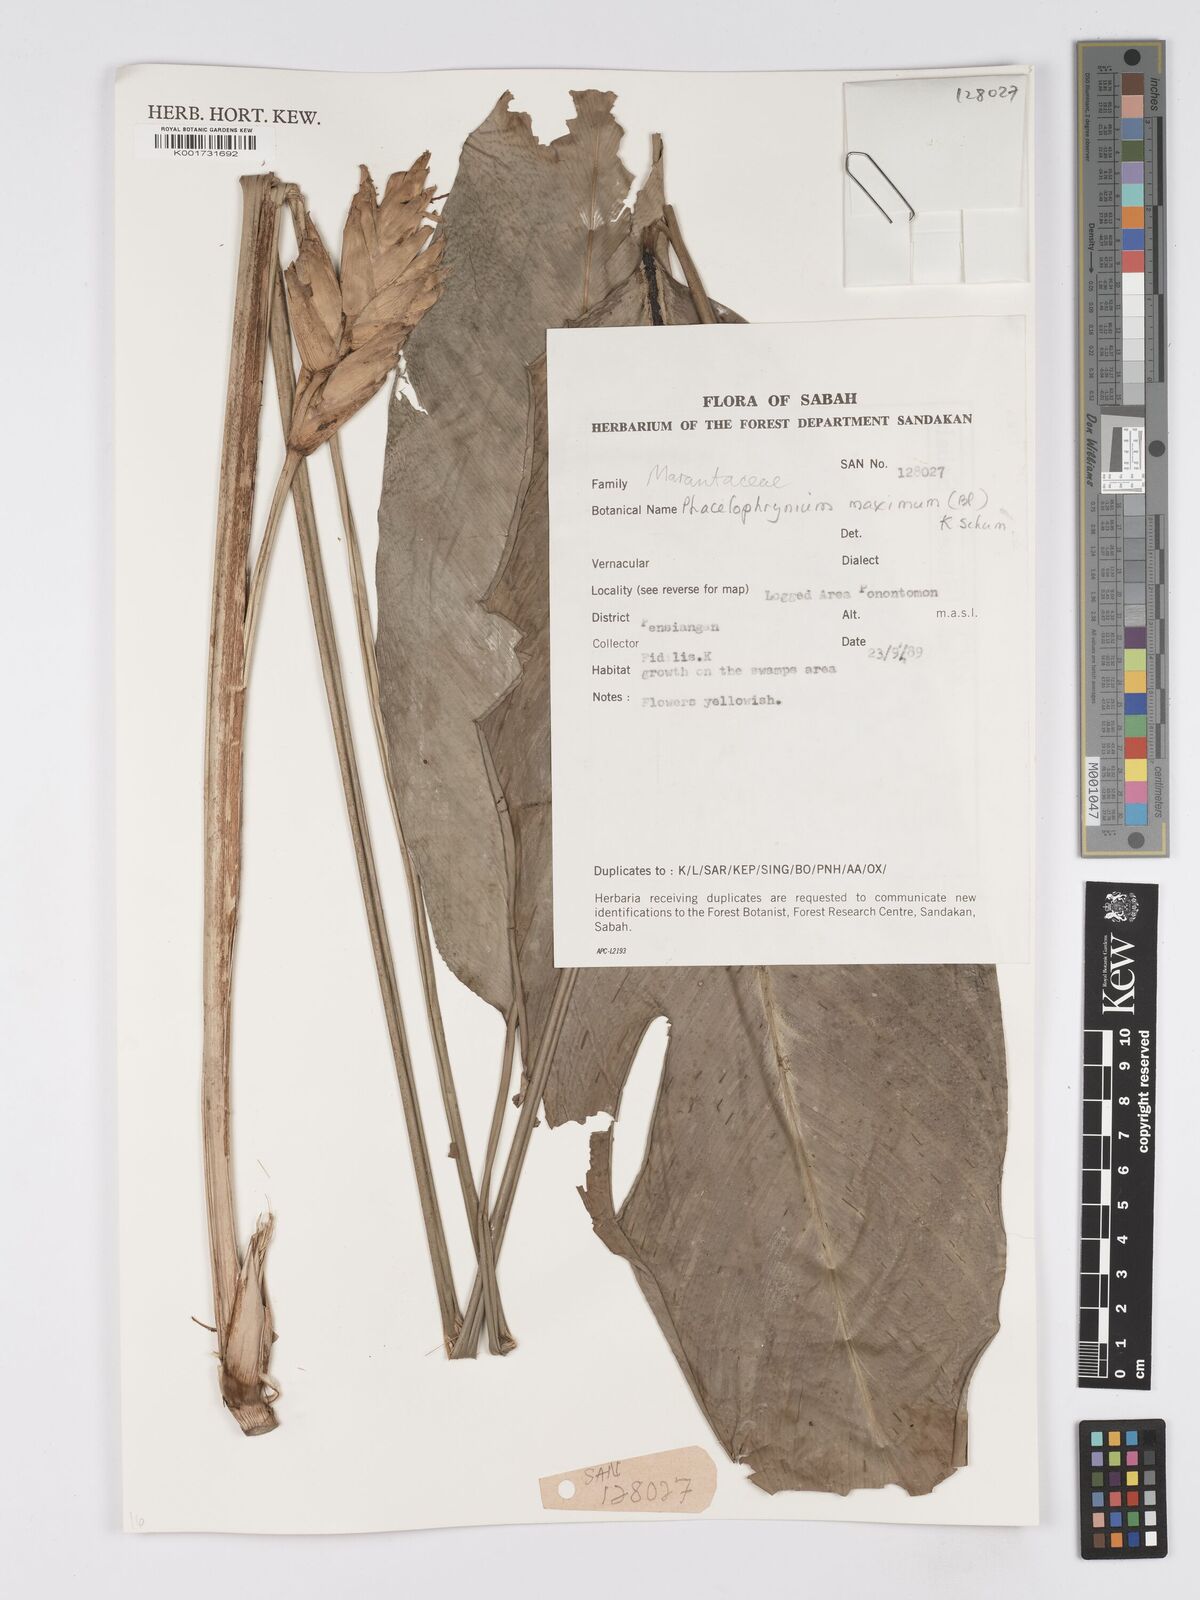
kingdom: Plantae
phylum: Tracheophyta
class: Liliopsida
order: Zingiberales
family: Marantaceae
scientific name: Marantaceae
